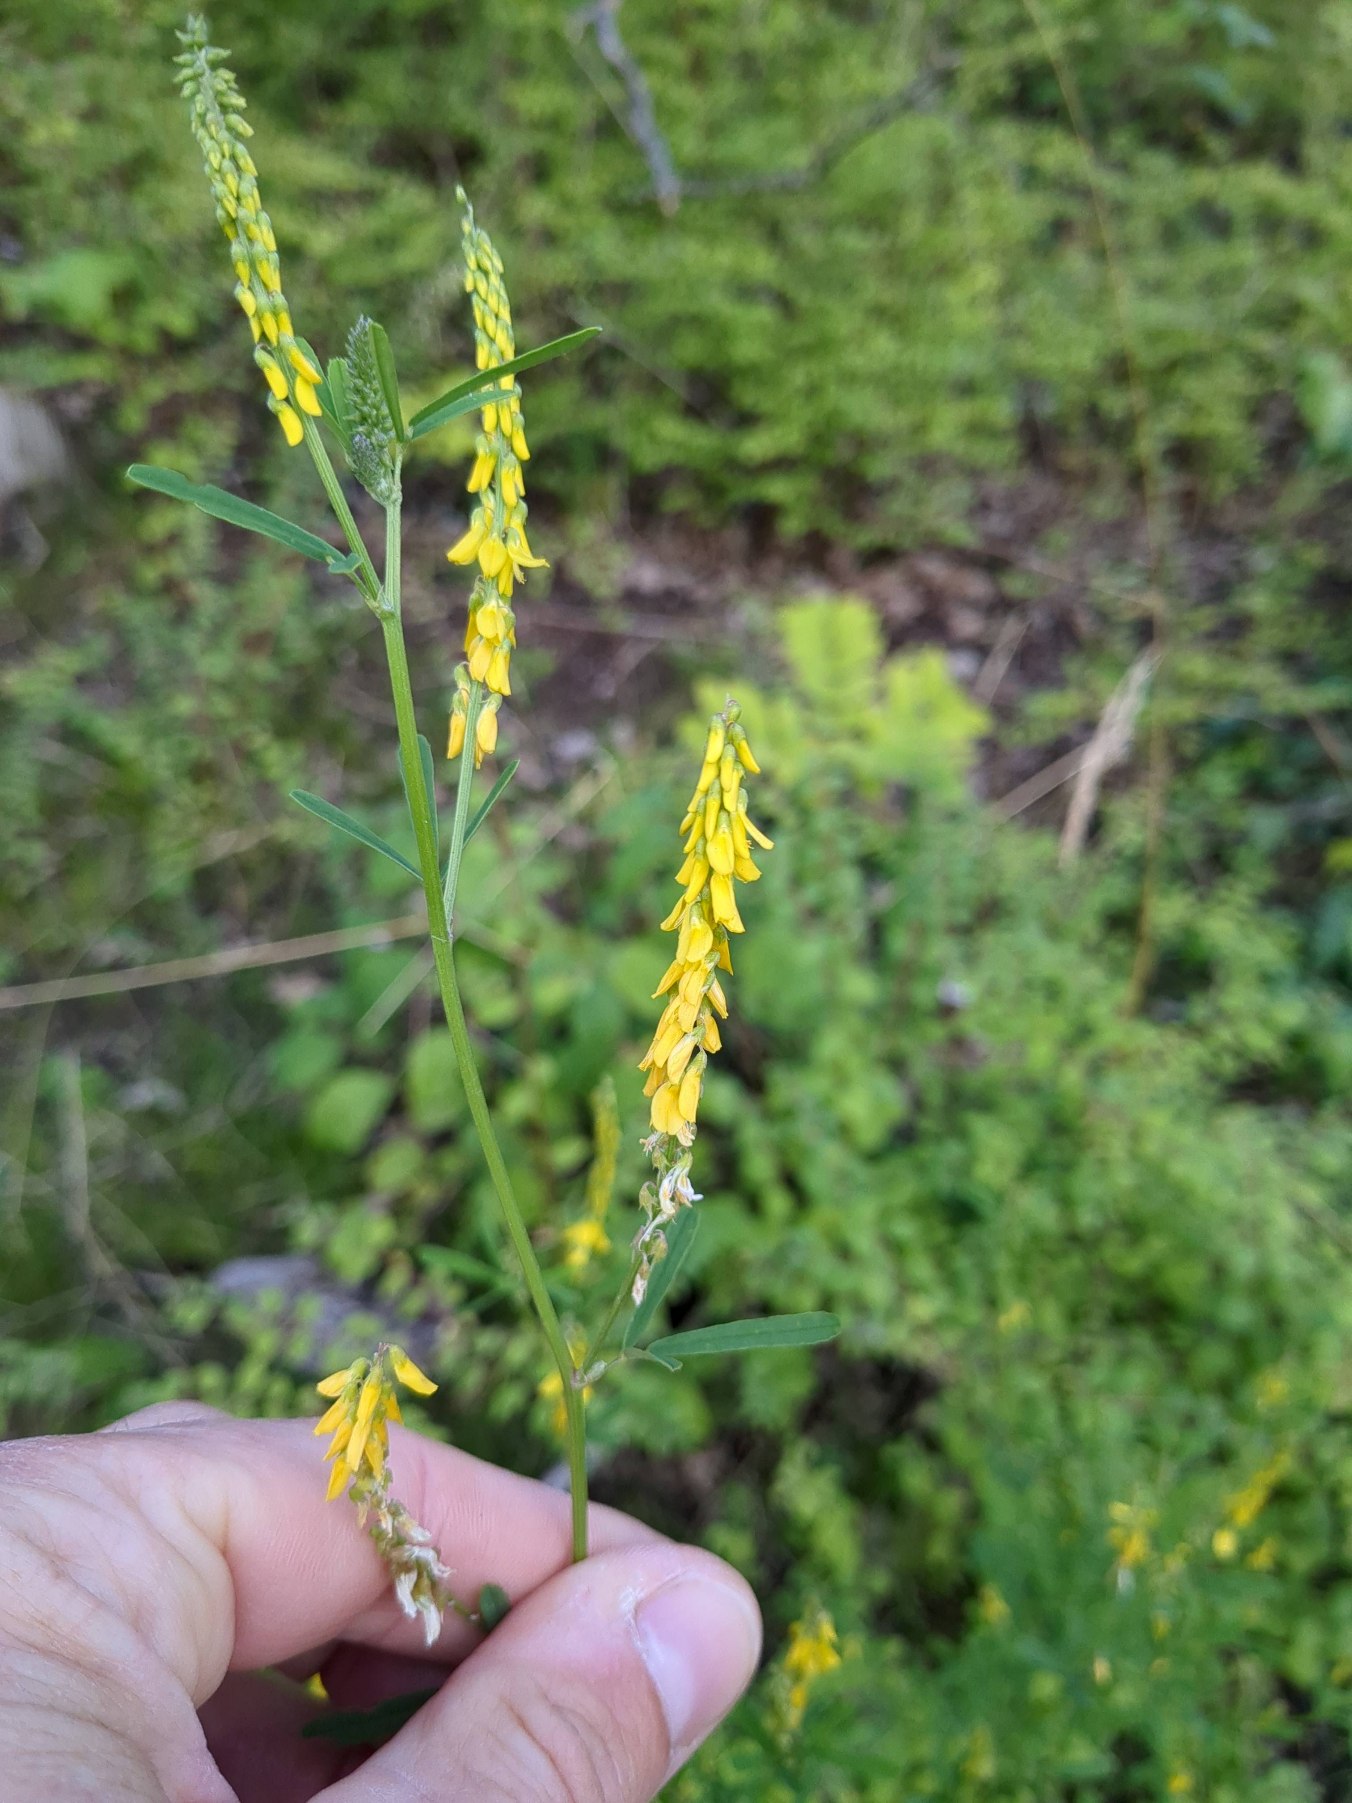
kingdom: Plantae
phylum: Tracheophyta
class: Magnoliopsida
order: Fabales
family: Fabaceae
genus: Melilotus
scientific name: Melilotus
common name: Stenkløverslægten
